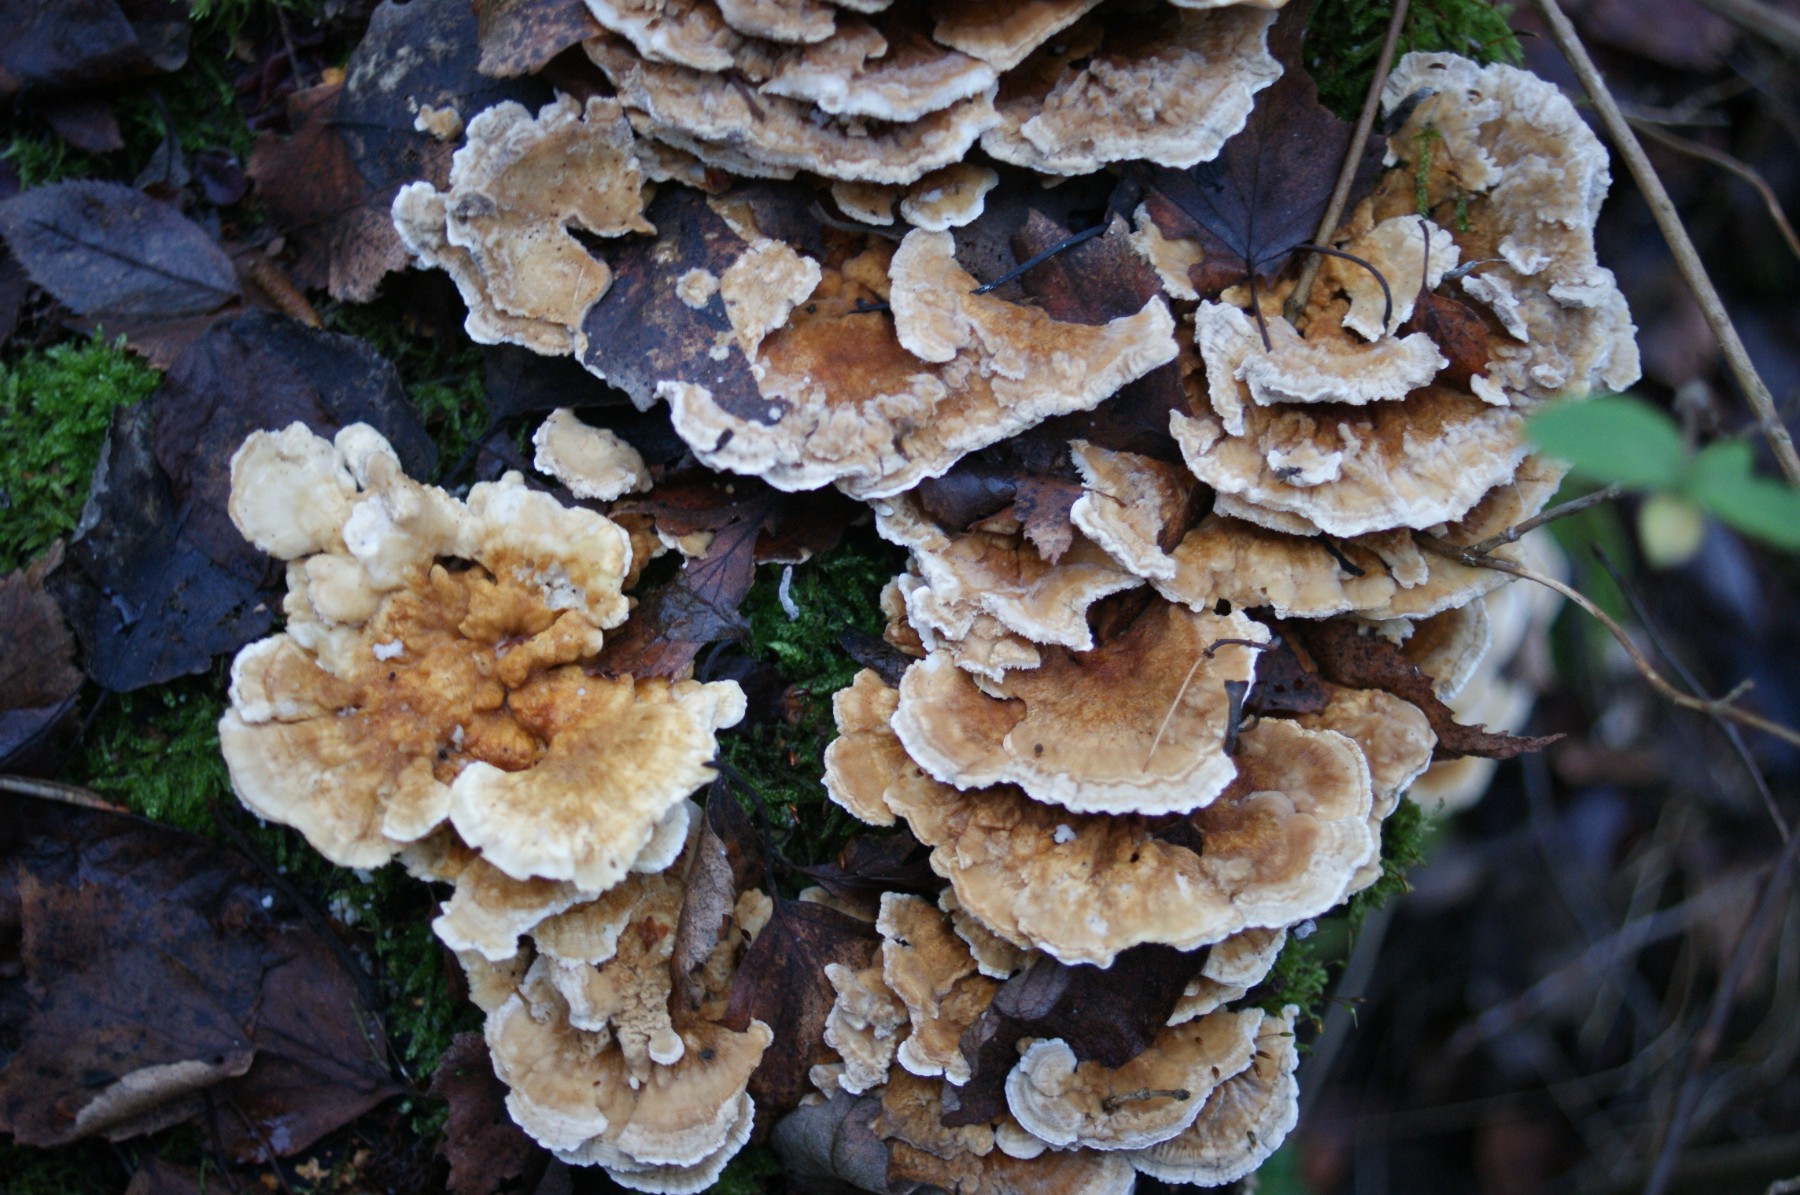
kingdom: Fungi
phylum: Basidiomycota
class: Agaricomycetes
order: Polyporales
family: Polyporaceae
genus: Trametes
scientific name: Trametes ochracea
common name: bæltet læderporesvamp
